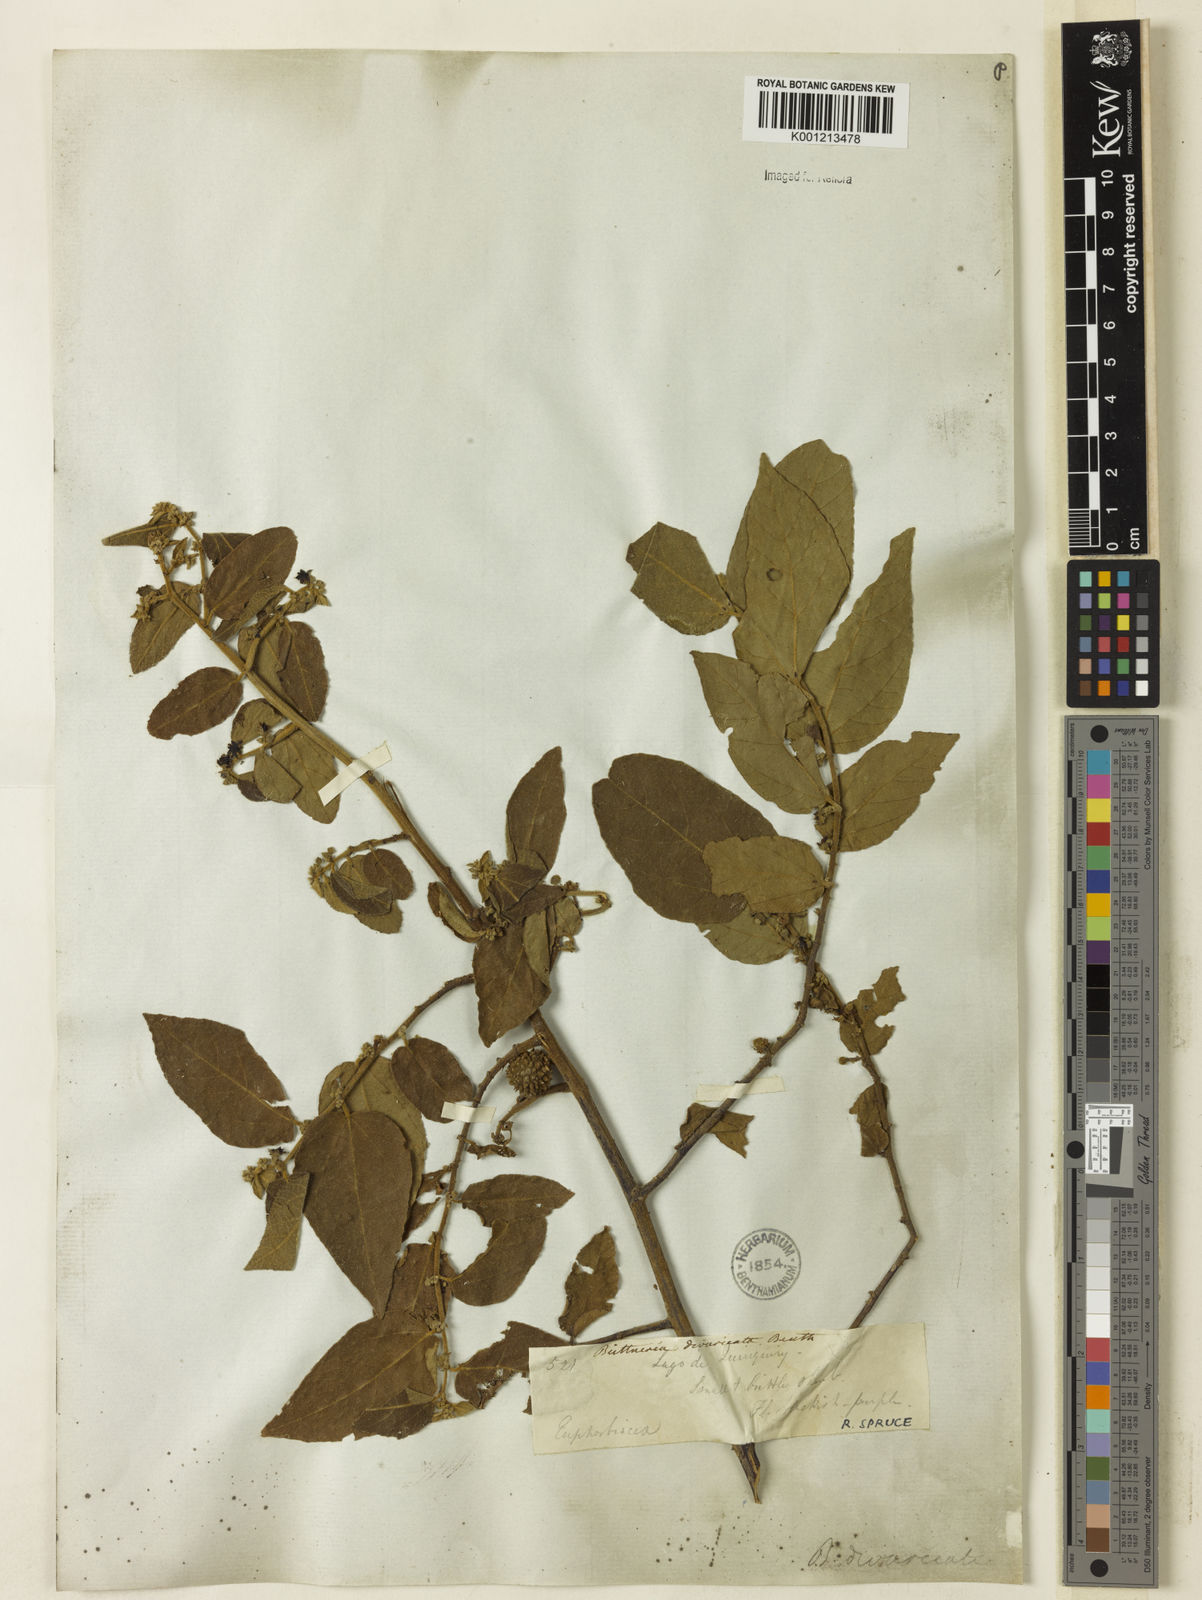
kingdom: Plantae
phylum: Tracheophyta
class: Magnoliopsida
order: Malvales
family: Malvaceae
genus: Byttneria
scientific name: Byttneria divaricata
